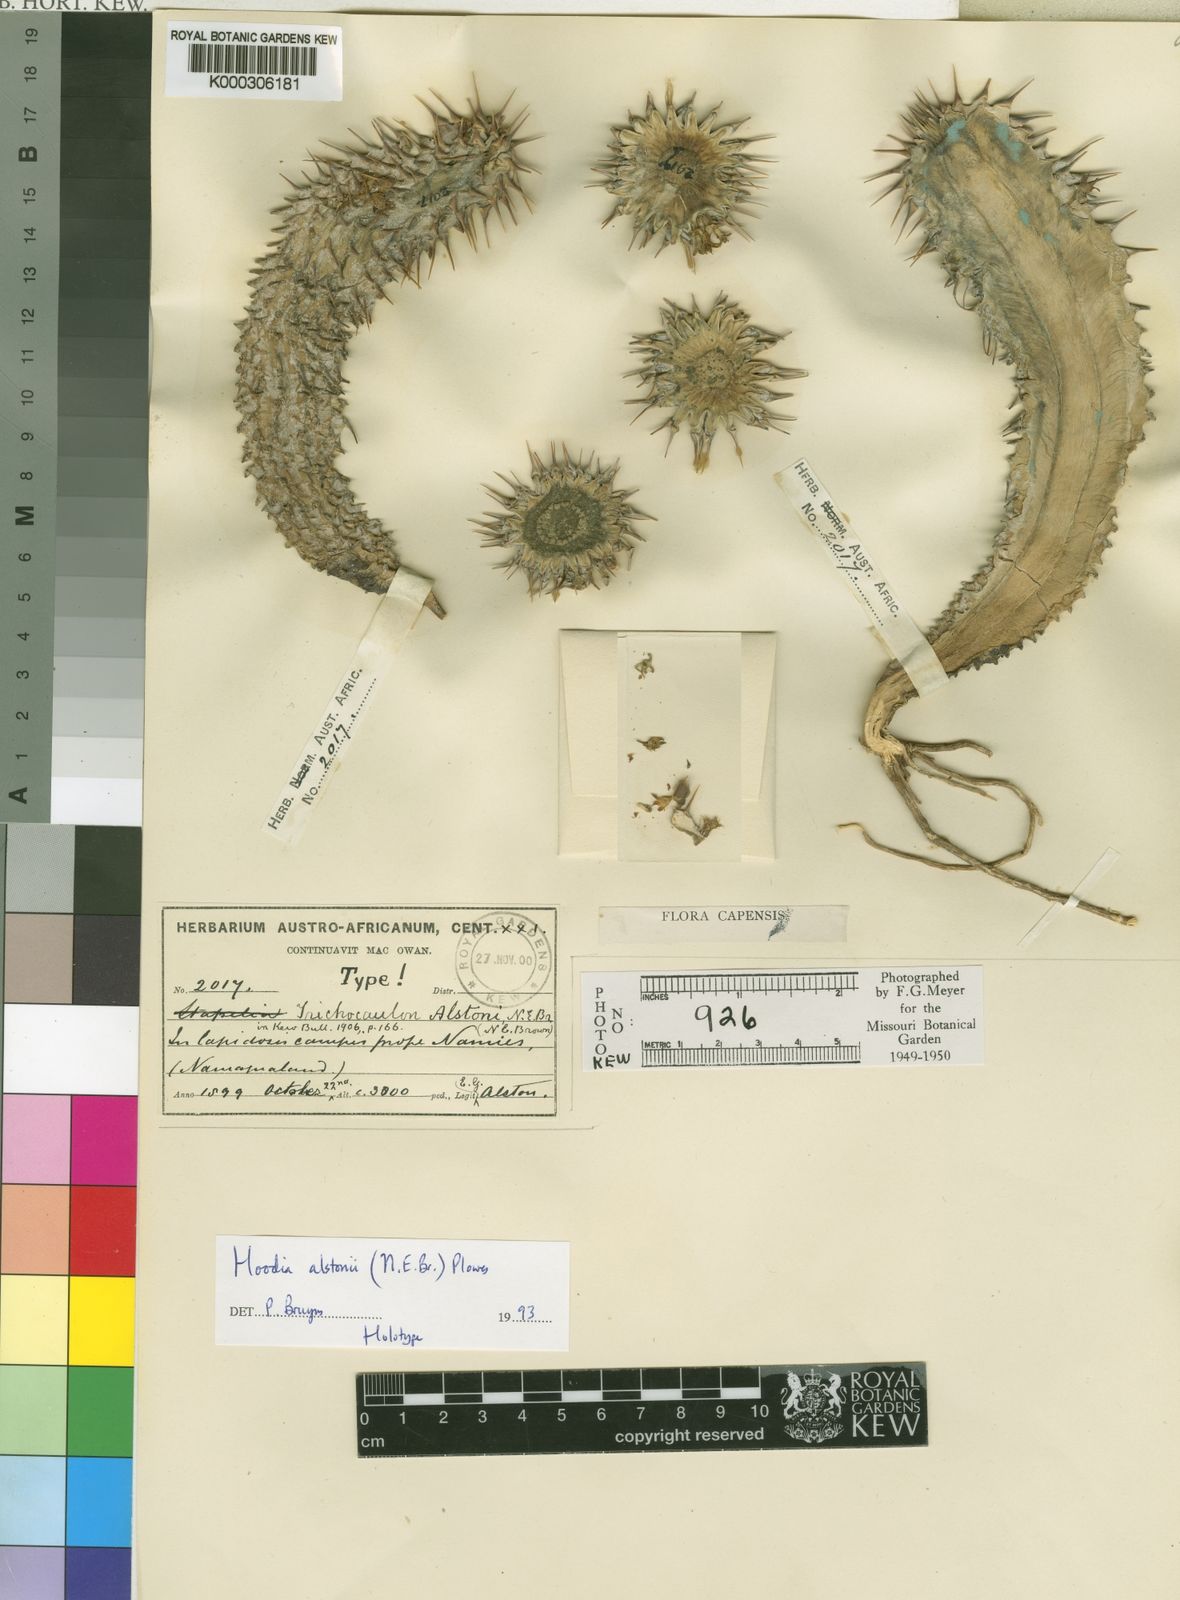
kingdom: Plantae
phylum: Tracheophyta
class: Magnoliopsida
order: Gentianales
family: Apocynaceae
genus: Ceropegia
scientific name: Ceropegia alstonii
